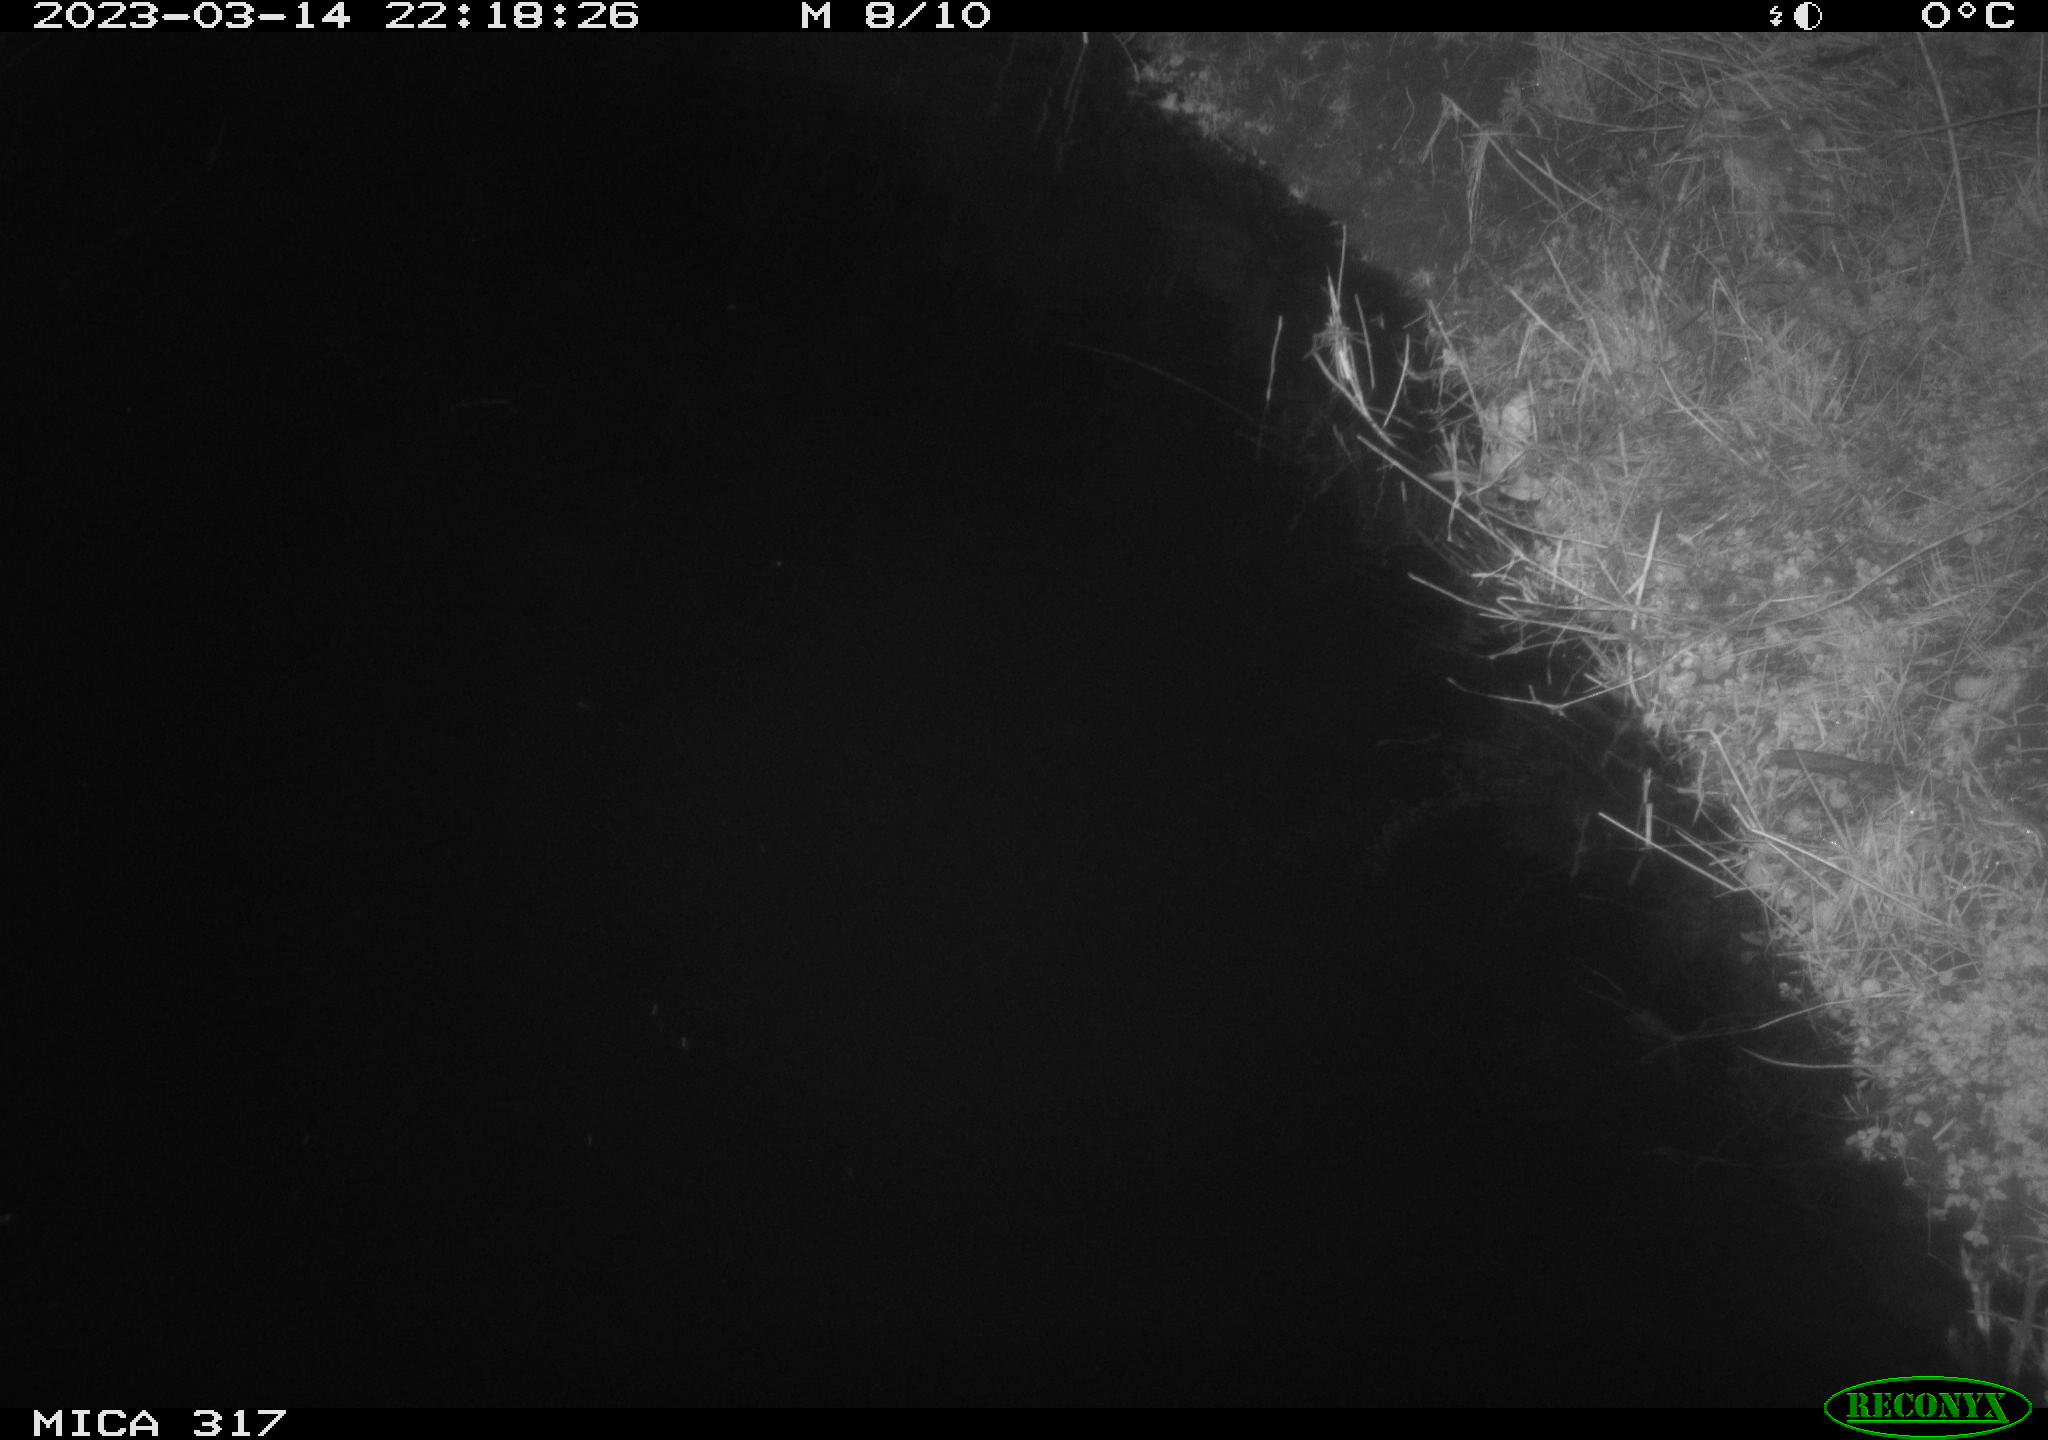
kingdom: Animalia
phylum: Chordata
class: Mammalia
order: Rodentia
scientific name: Rodentia
